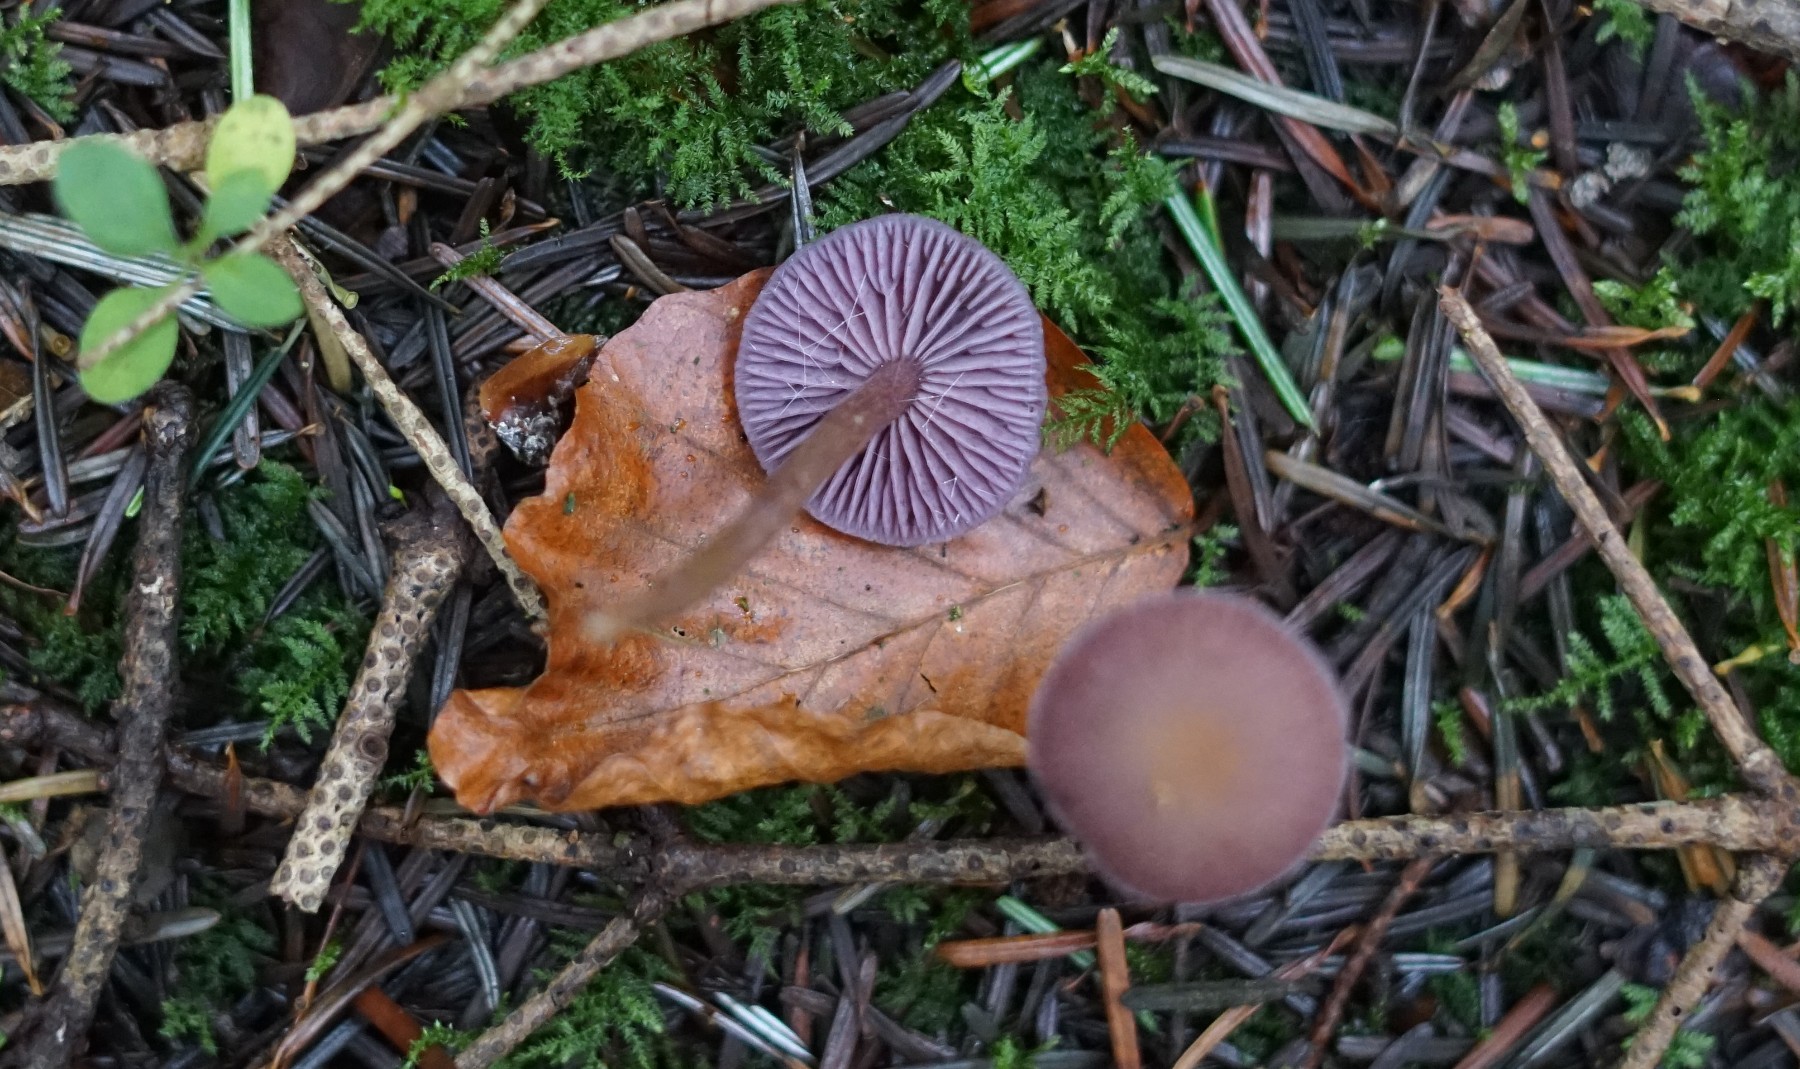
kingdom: Fungi
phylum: Basidiomycota
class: Agaricomycetes
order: Agaricales
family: Hydnangiaceae
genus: Laccaria
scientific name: Laccaria amethystina
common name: violet ametysthat
